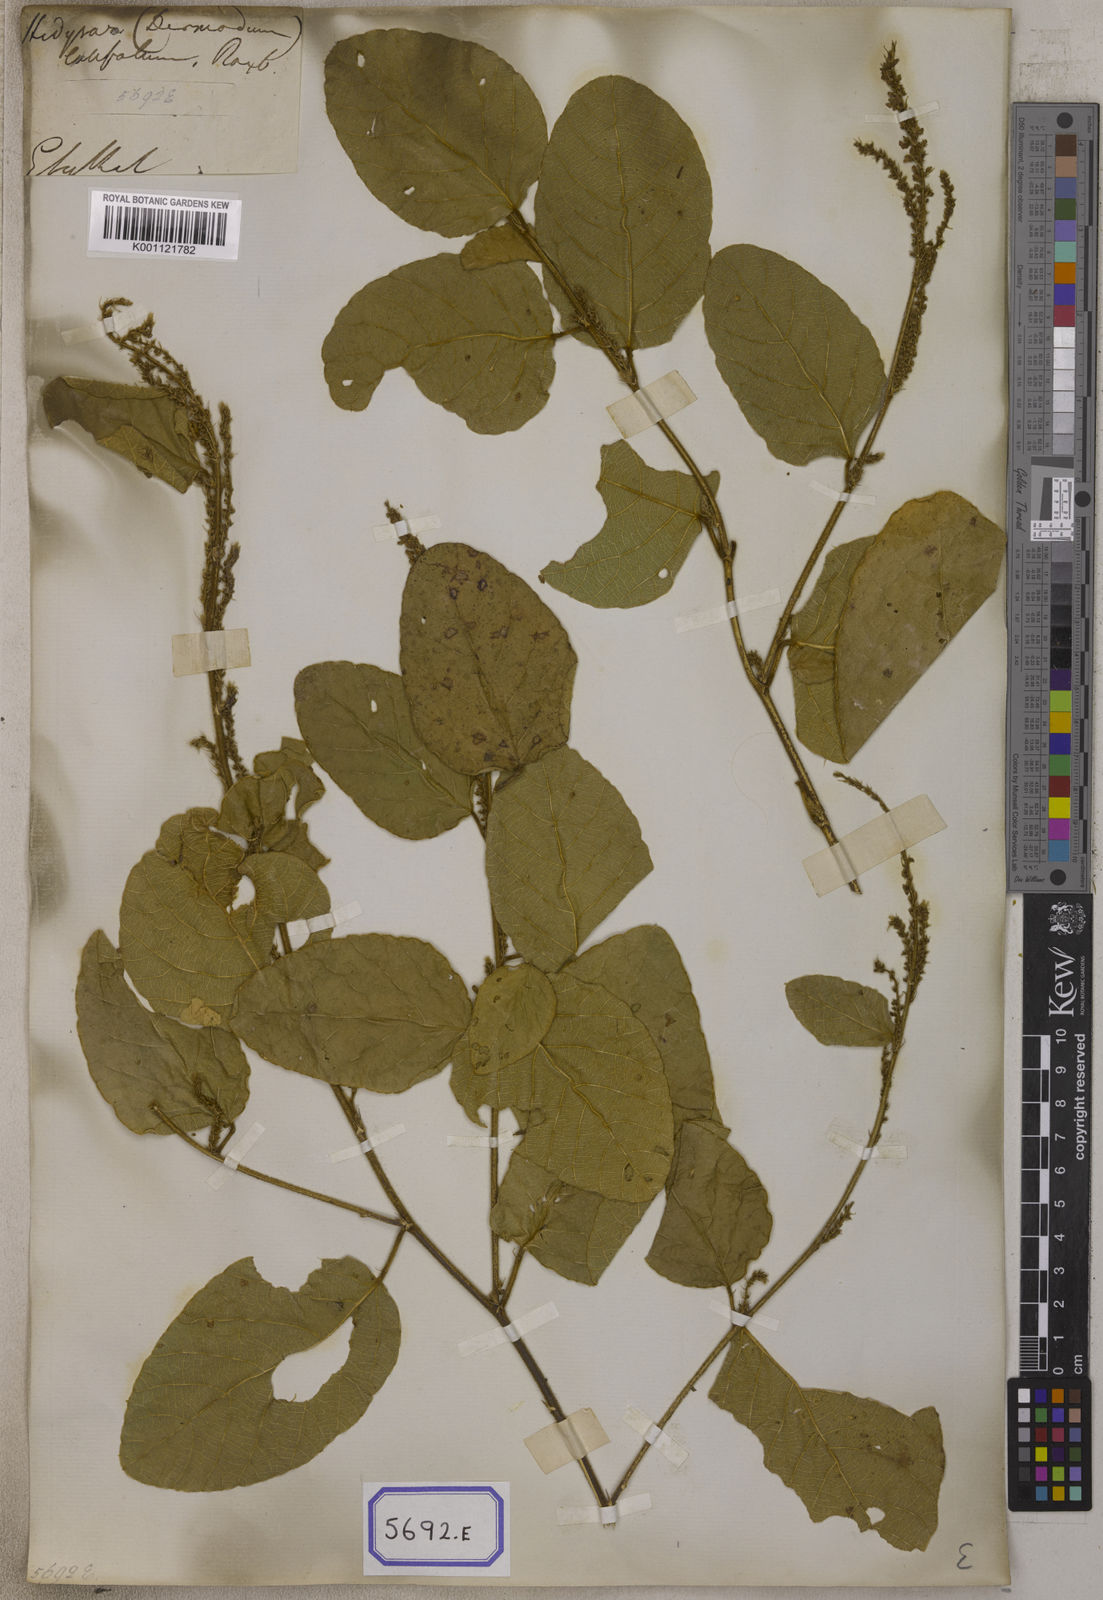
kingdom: Plantae
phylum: Tracheophyta
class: Magnoliopsida
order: Fabales
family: Fabaceae
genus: Polhillides
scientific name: Polhillides velutina
